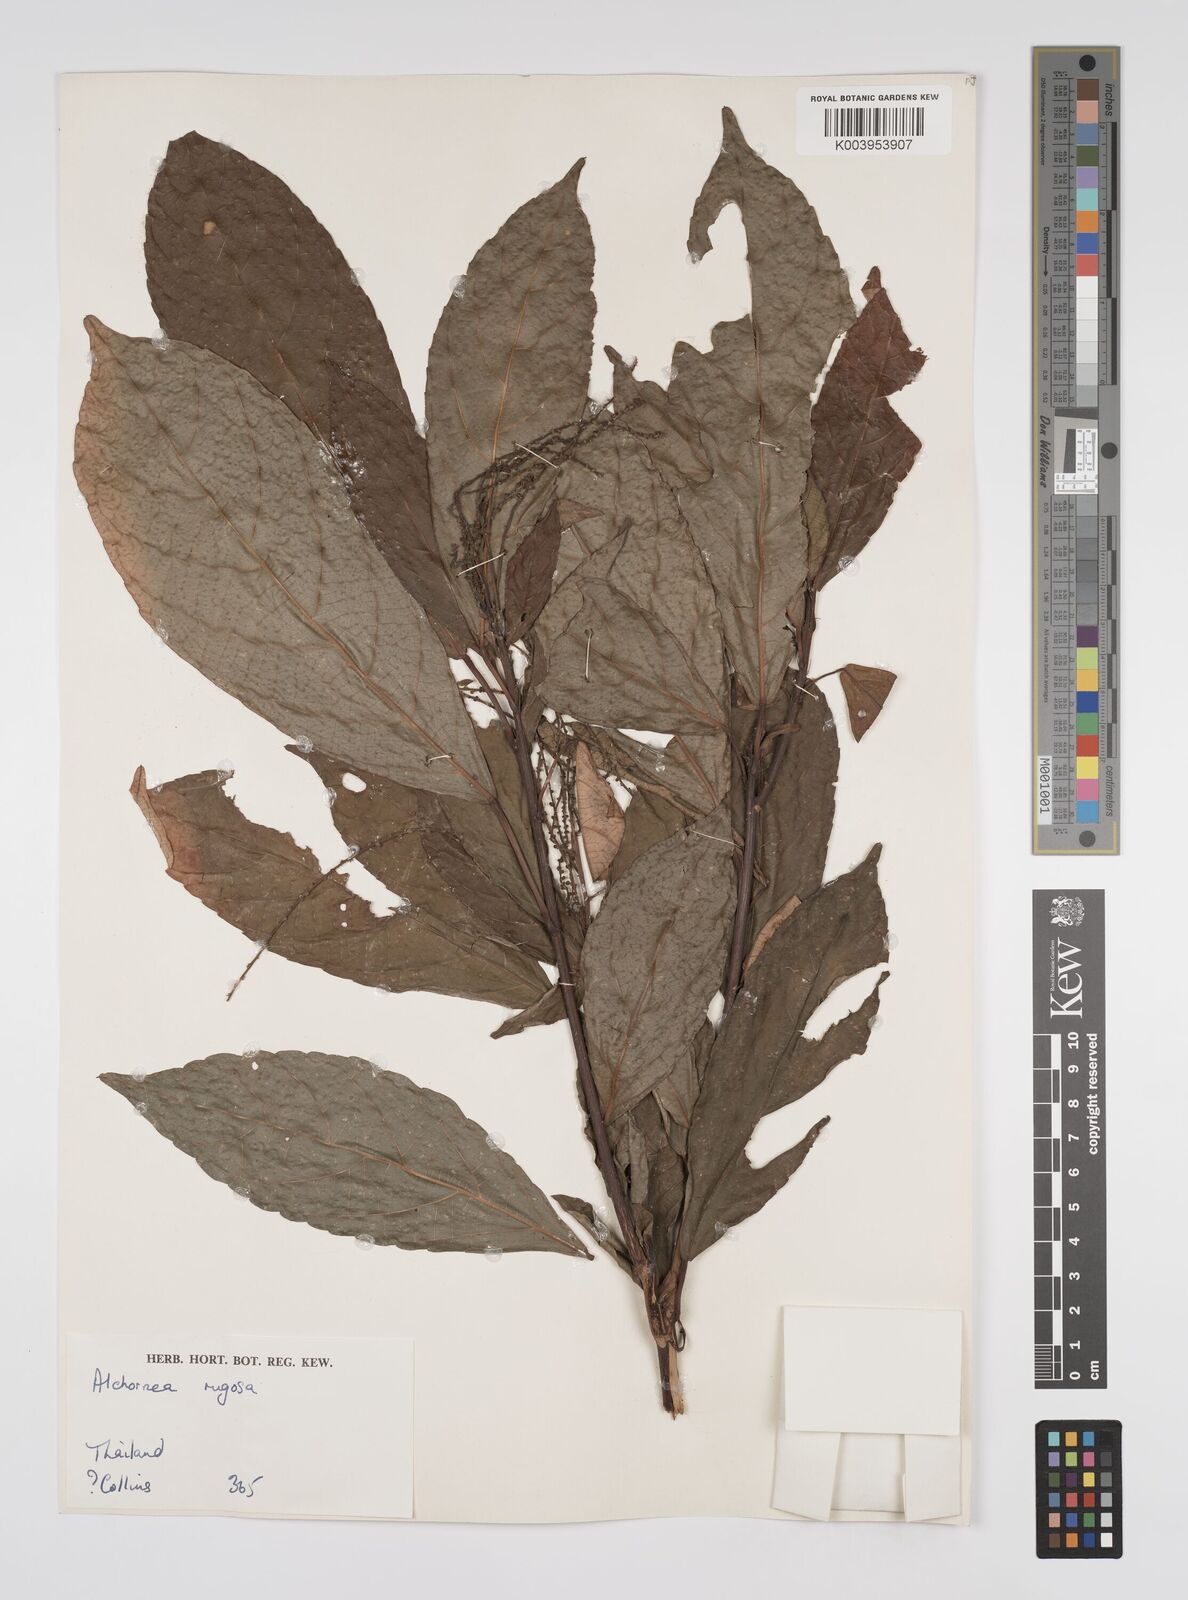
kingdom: Plantae
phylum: Tracheophyta
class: Magnoliopsida
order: Malpighiales
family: Euphorbiaceae
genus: Alchornea
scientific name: Alchornea rugosa
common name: Alchorntree
